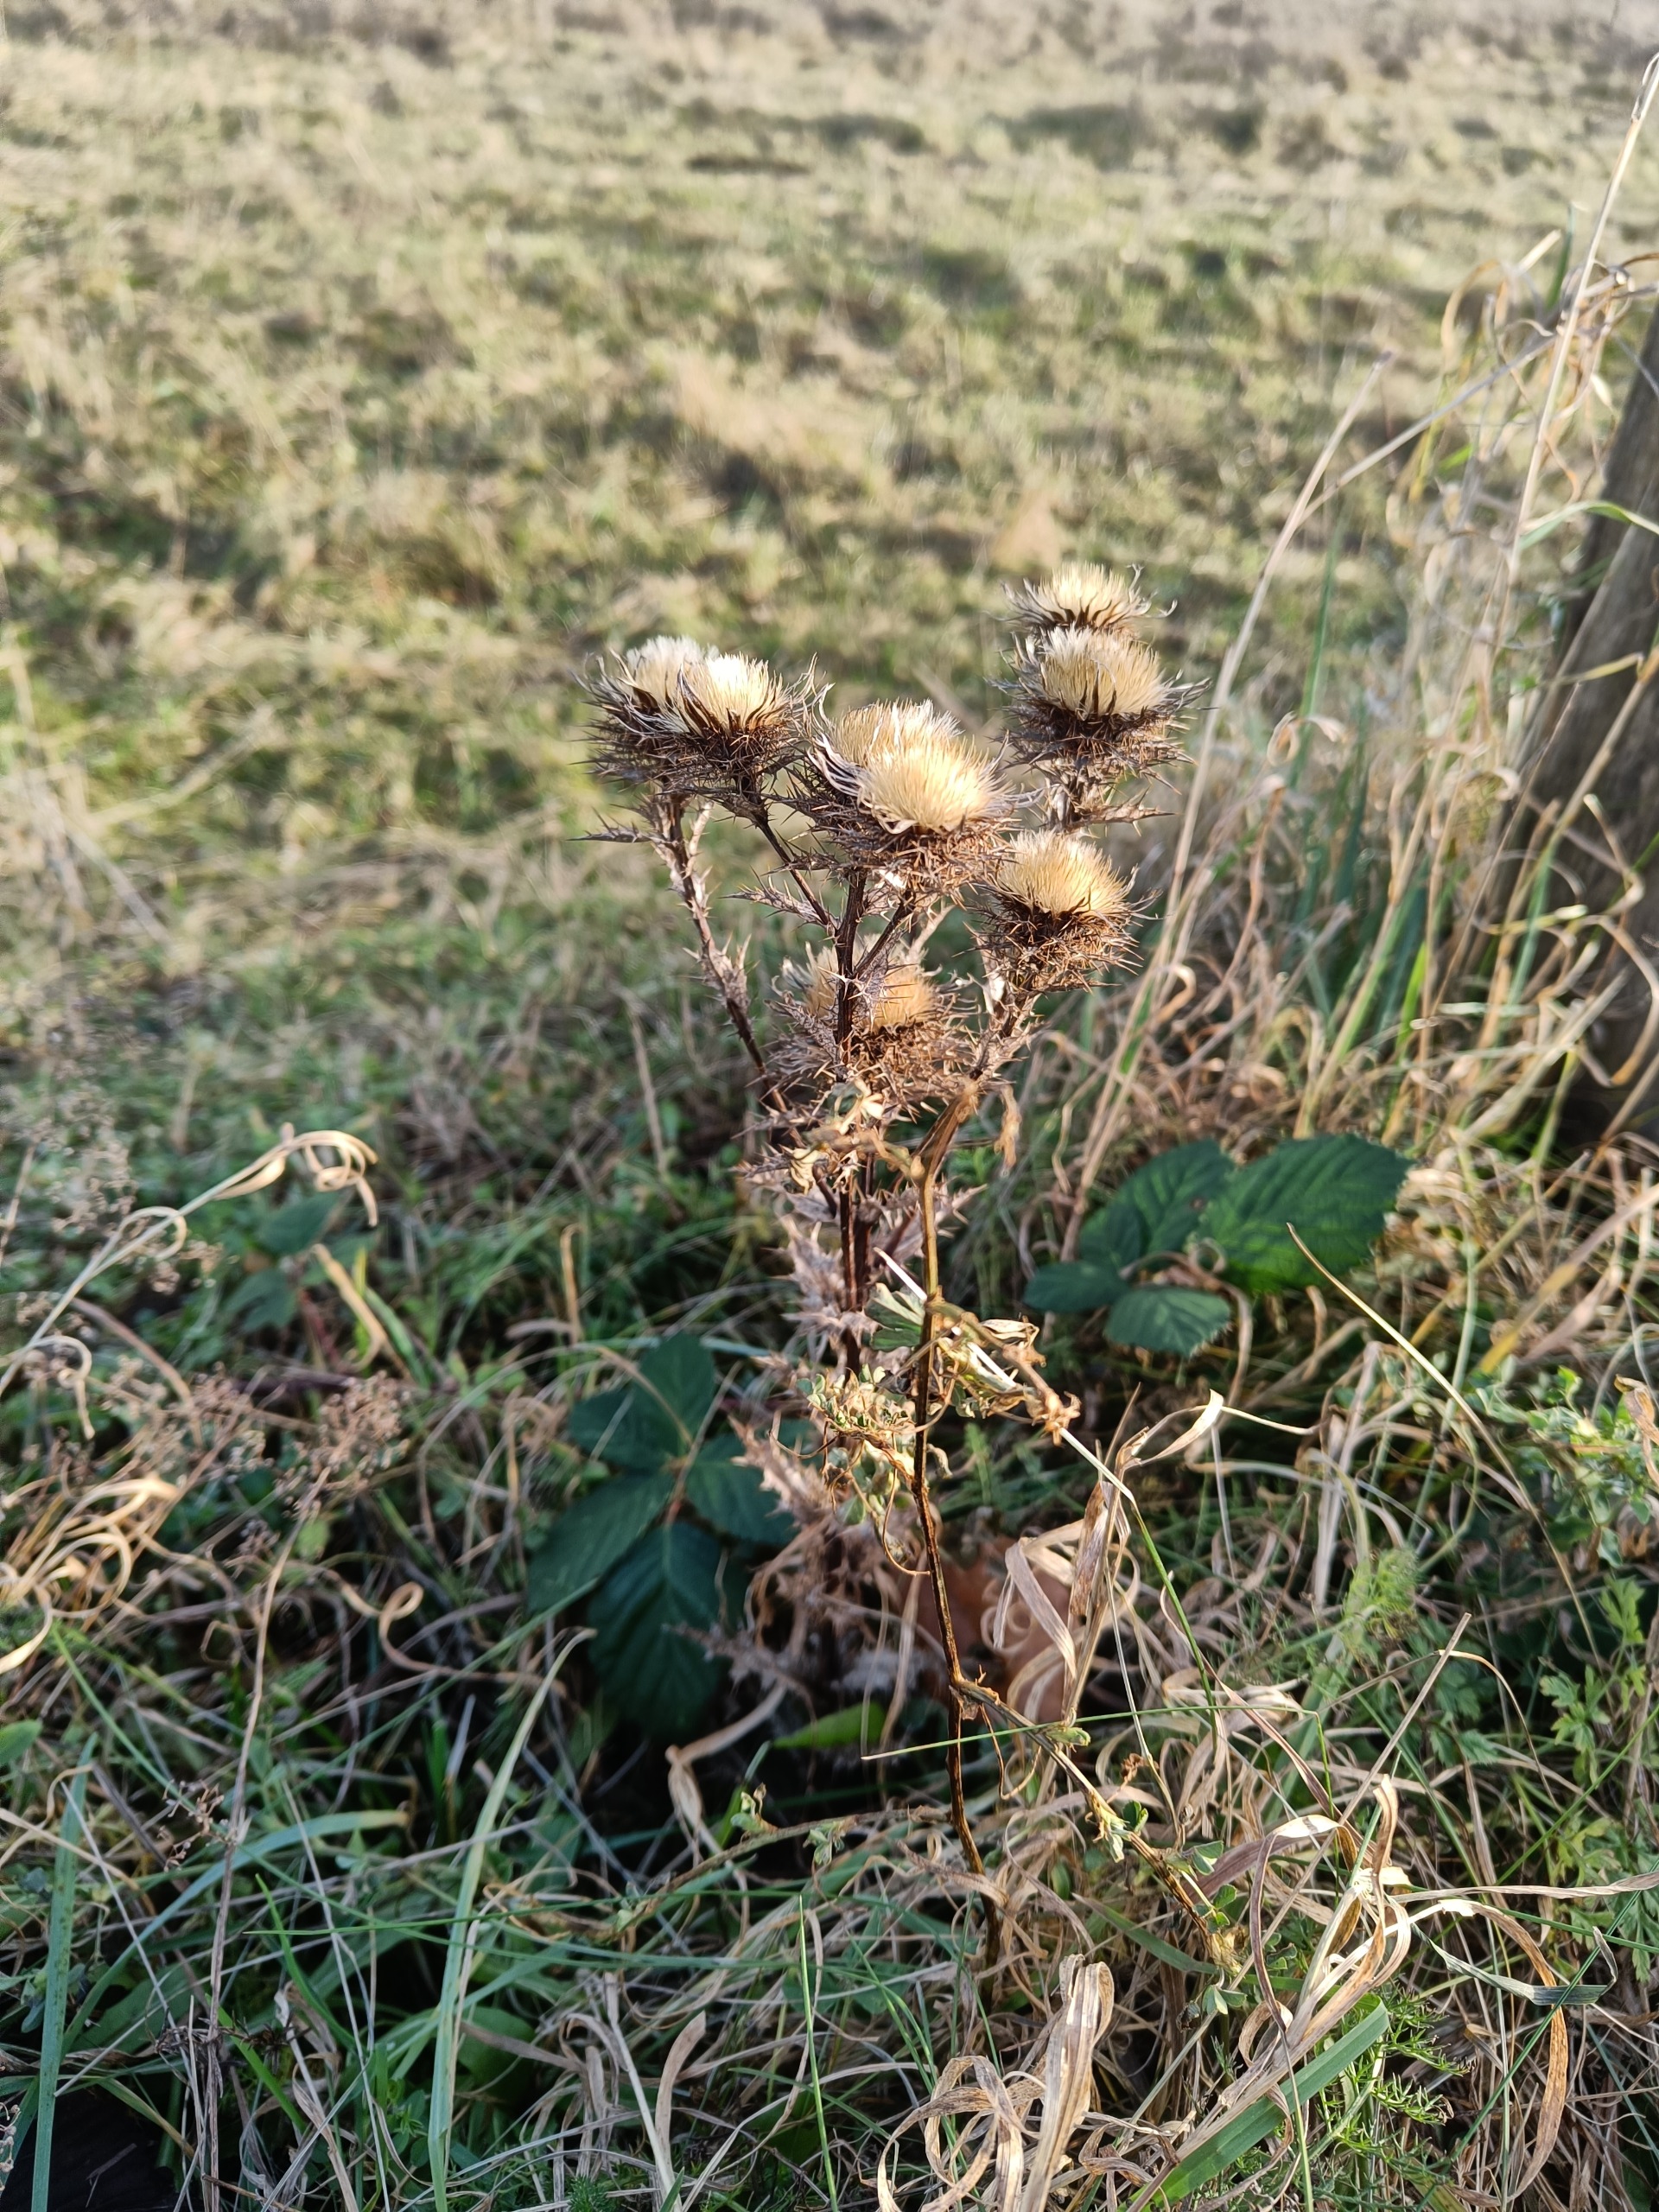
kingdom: Plantae
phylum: Tracheophyta
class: Magnoliopsida
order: Asterales
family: Asteraceae
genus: Carlina
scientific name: Carlina vulgaris
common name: Bakketidsel
